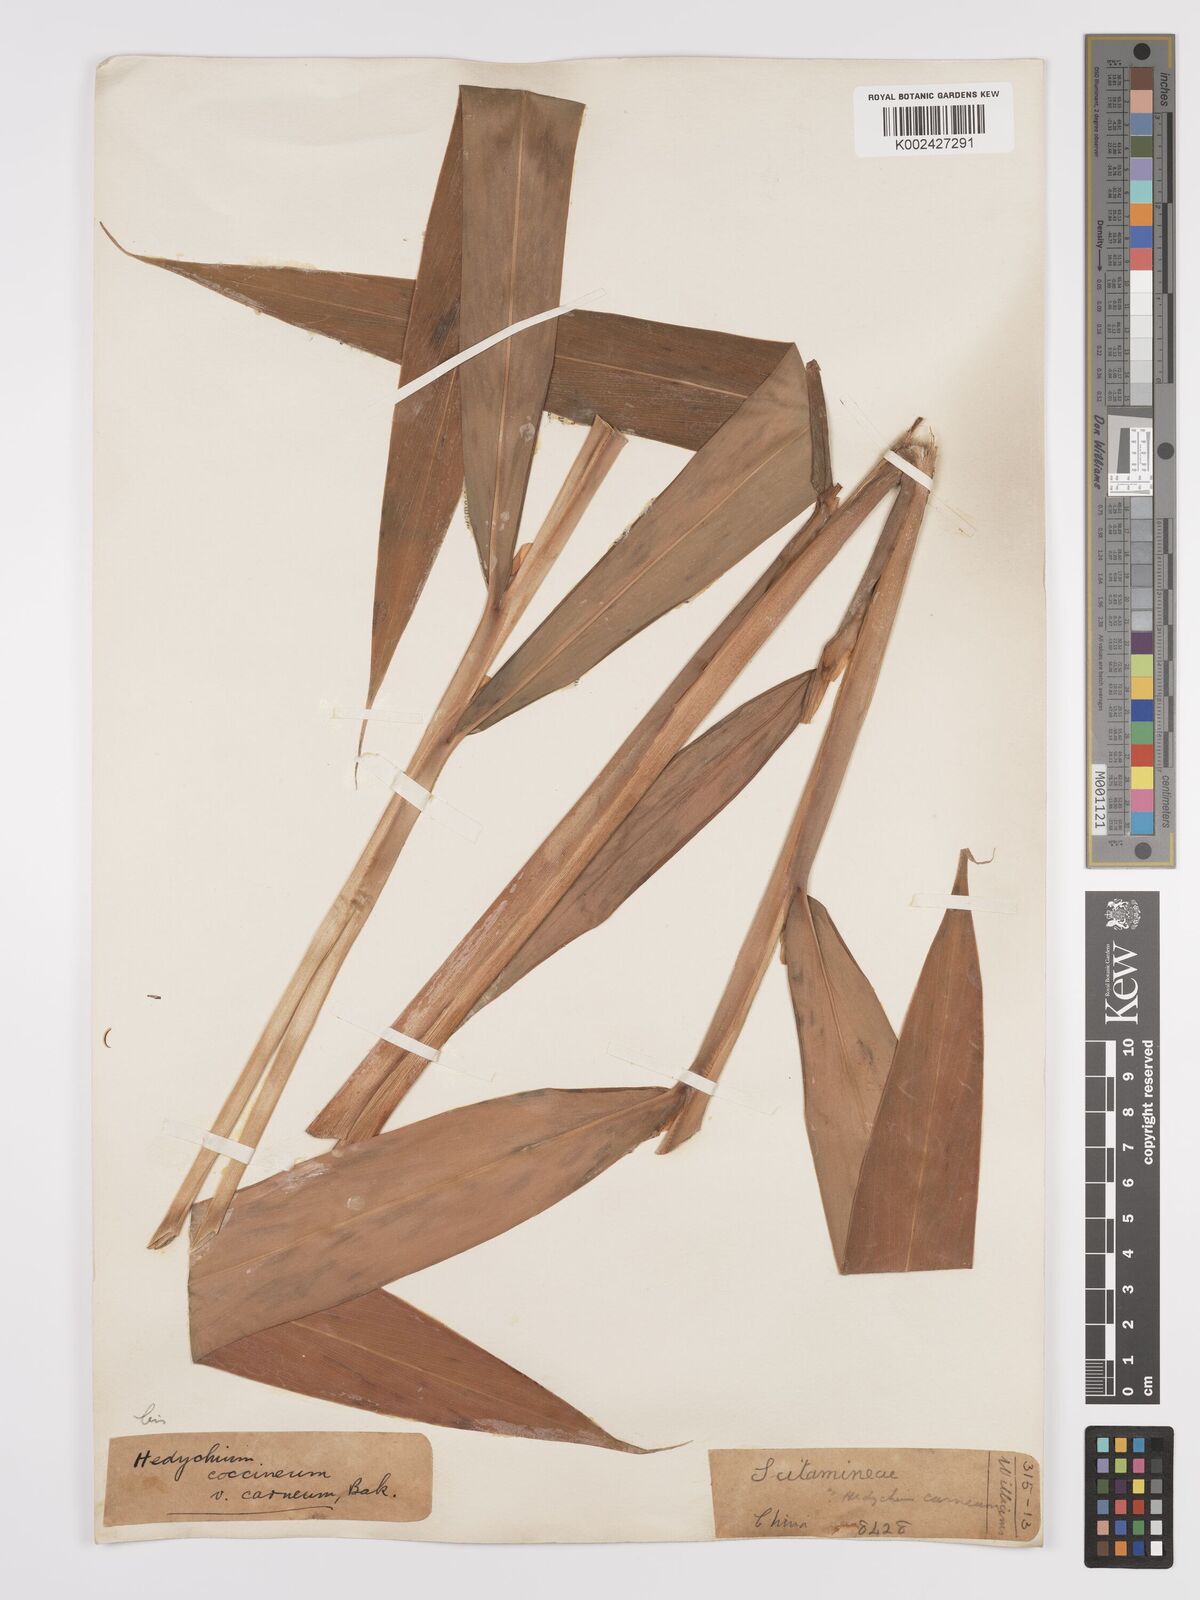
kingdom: Plantae
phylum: Tracheophyta
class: Liliopsida
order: Zingiberales
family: Zingiberaceae
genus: Hedychium
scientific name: Hedychium coccineum
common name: Red ginger-lily
